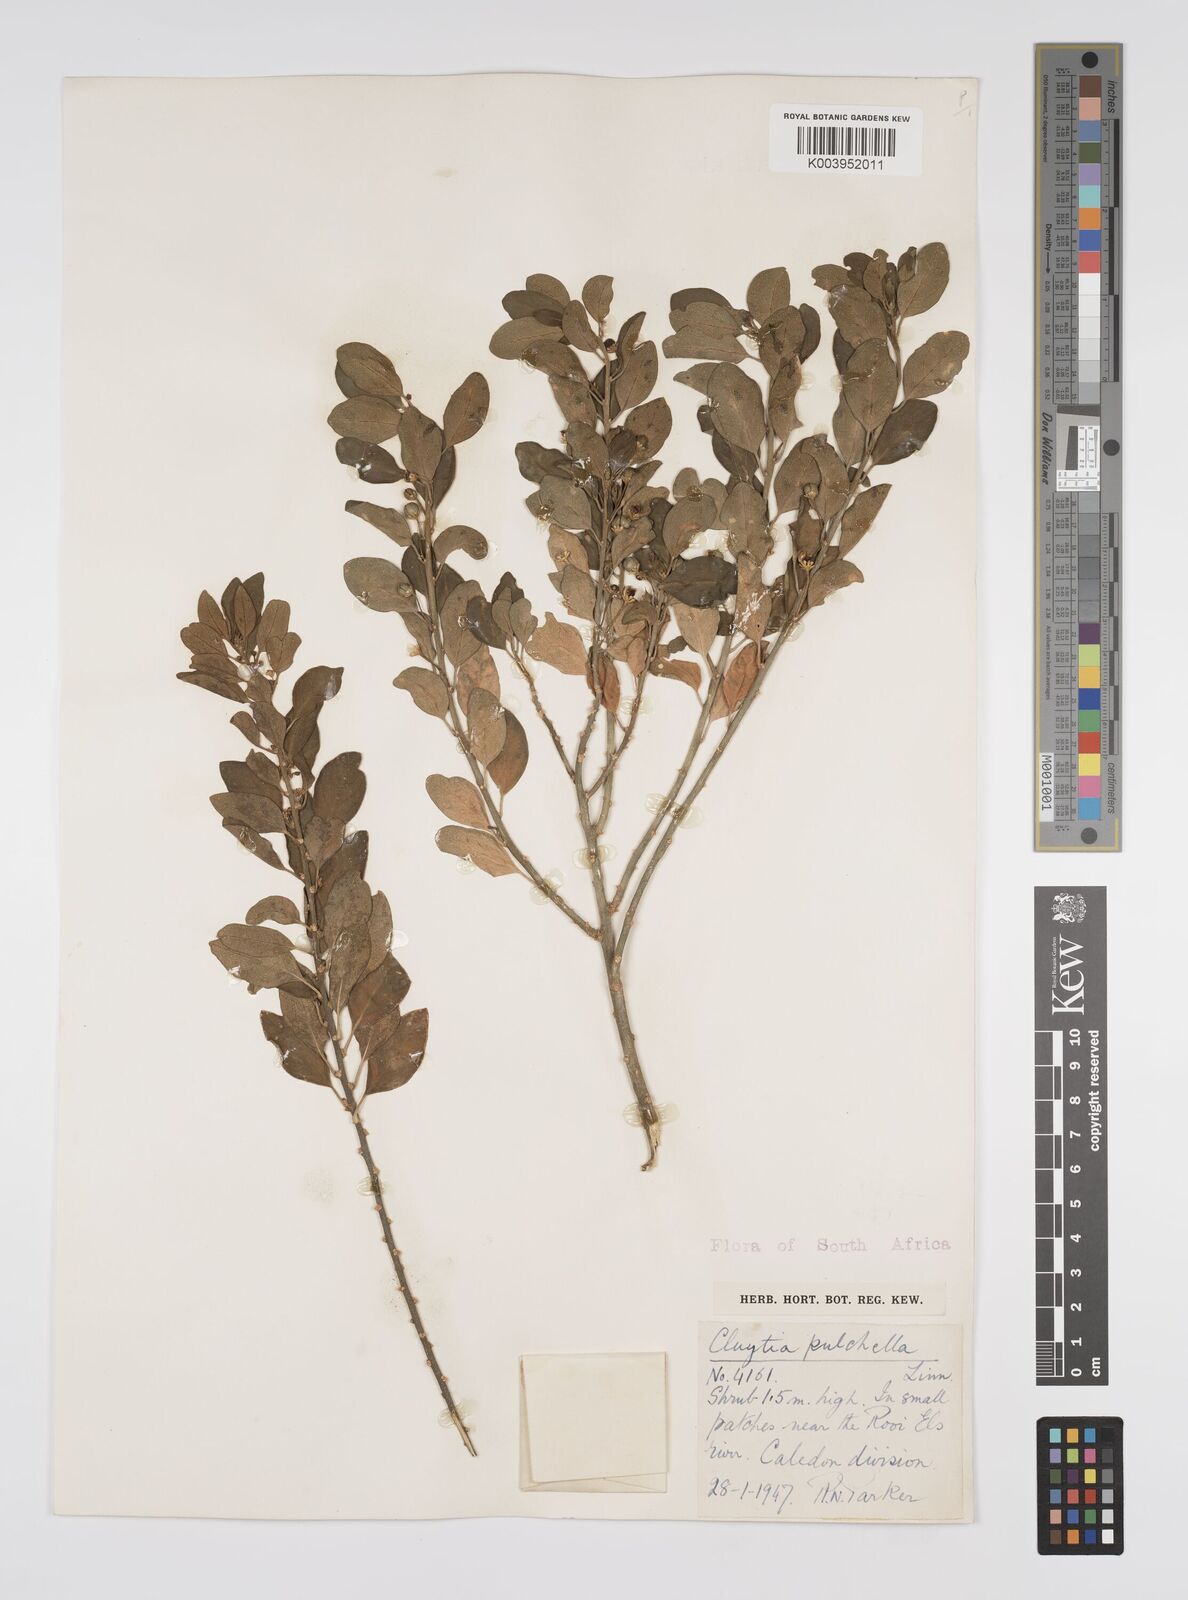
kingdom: Plantae
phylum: Tracheophyta
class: Magnoliopsida
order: Malpighiales
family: Peraceae
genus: Clutia
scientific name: Clutia pulchella
